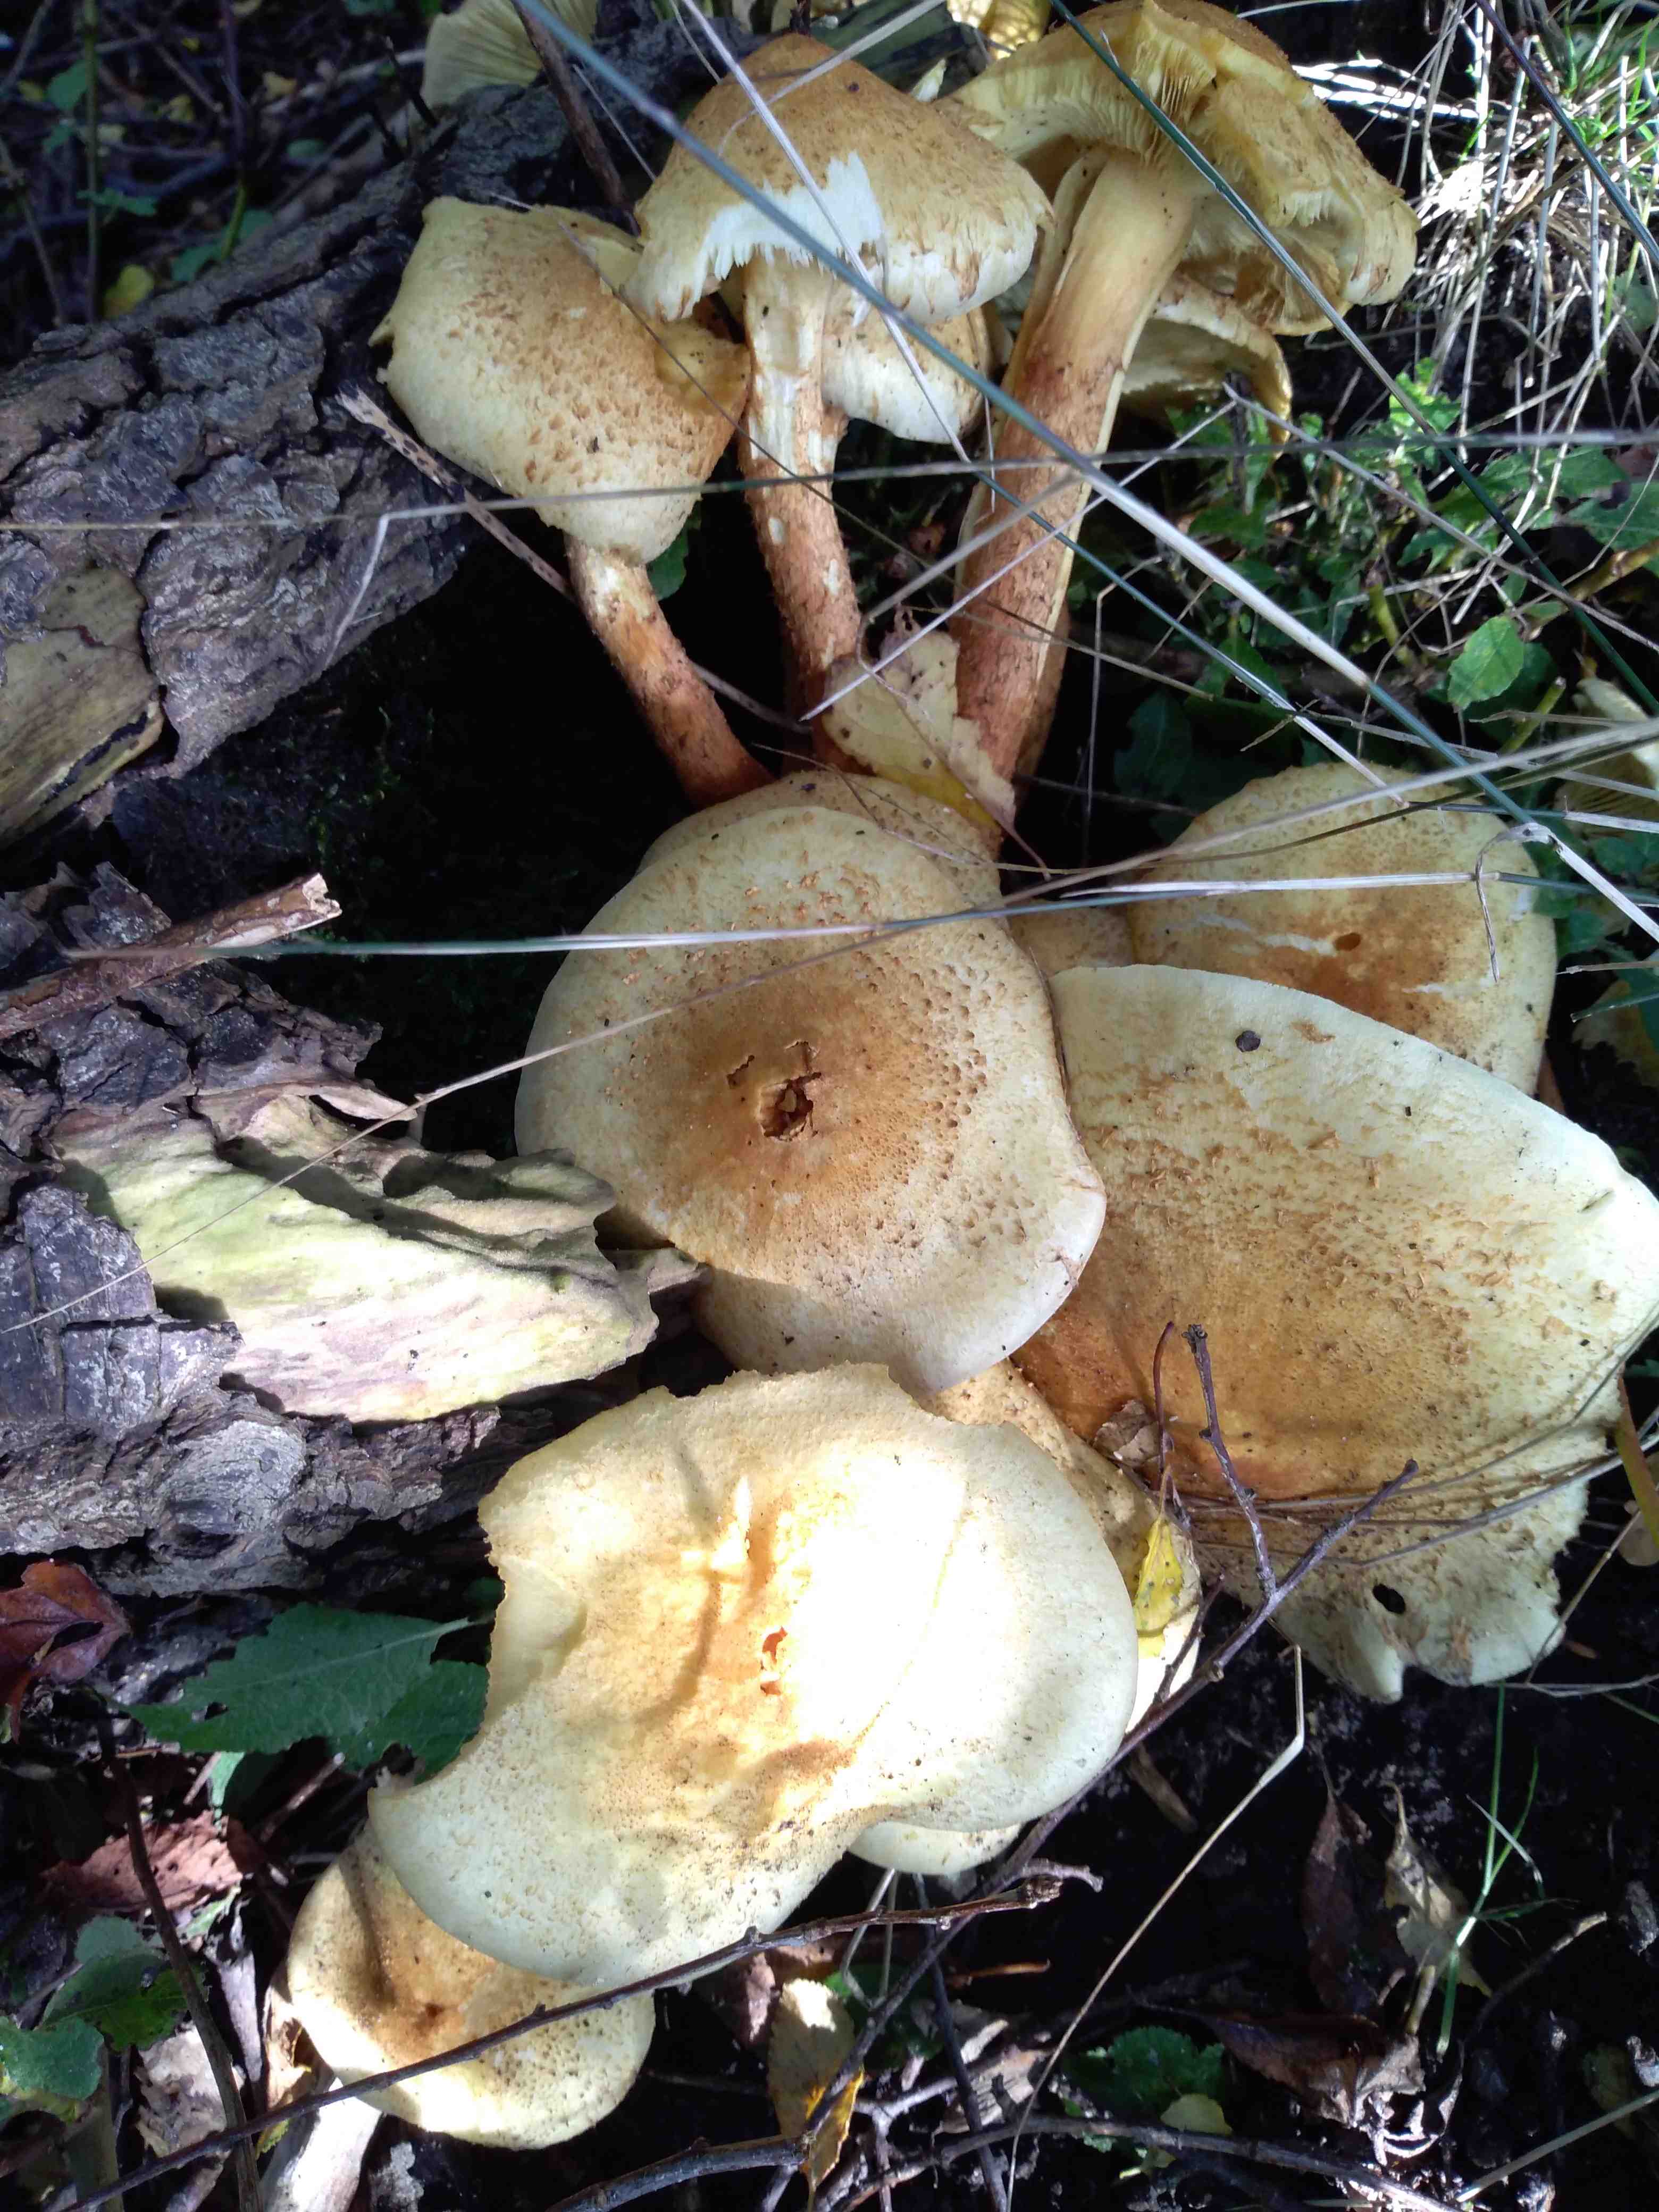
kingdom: Fungi
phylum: Basidiomycota
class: Agaricomycetes
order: Agaricales
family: Strophariaceae
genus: Pholiota
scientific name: Pholiota squarrosa
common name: krumskællet skælhat
